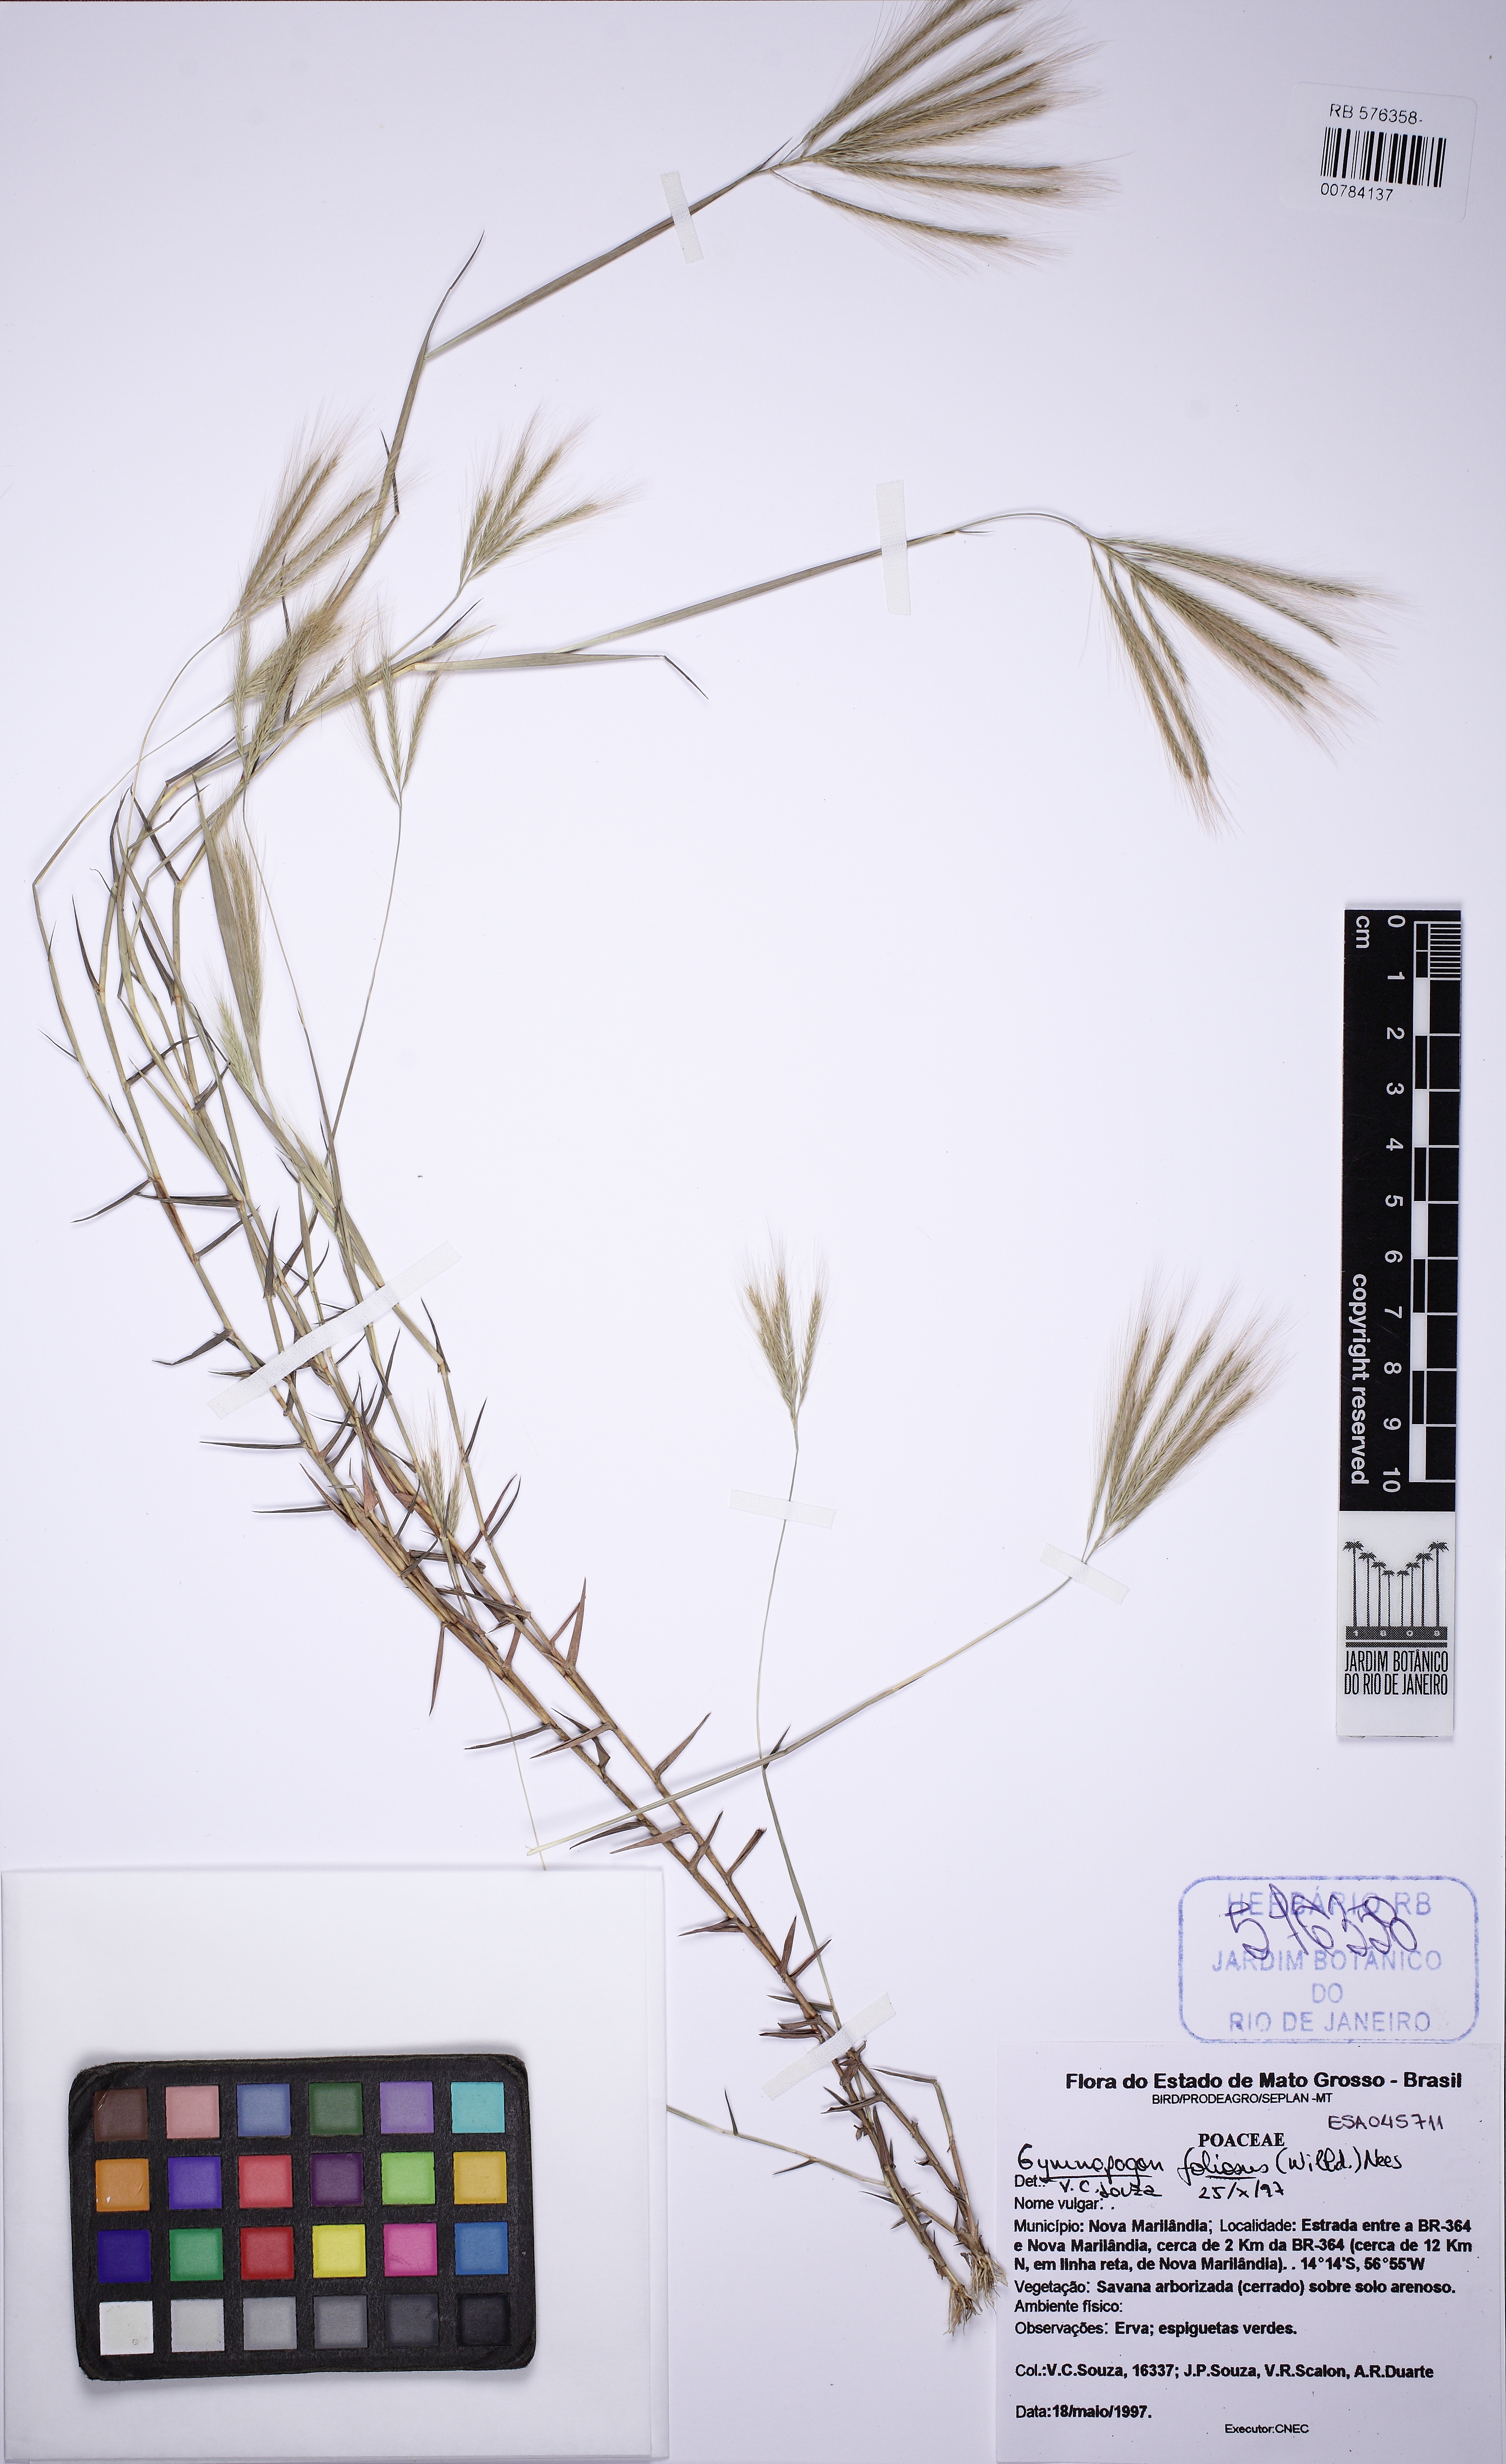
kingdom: Plantae
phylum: Tracheophyta
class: Liliopsida
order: Poales
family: Poaceae
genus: Gymnopogon
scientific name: Gymnopogon foliosus
